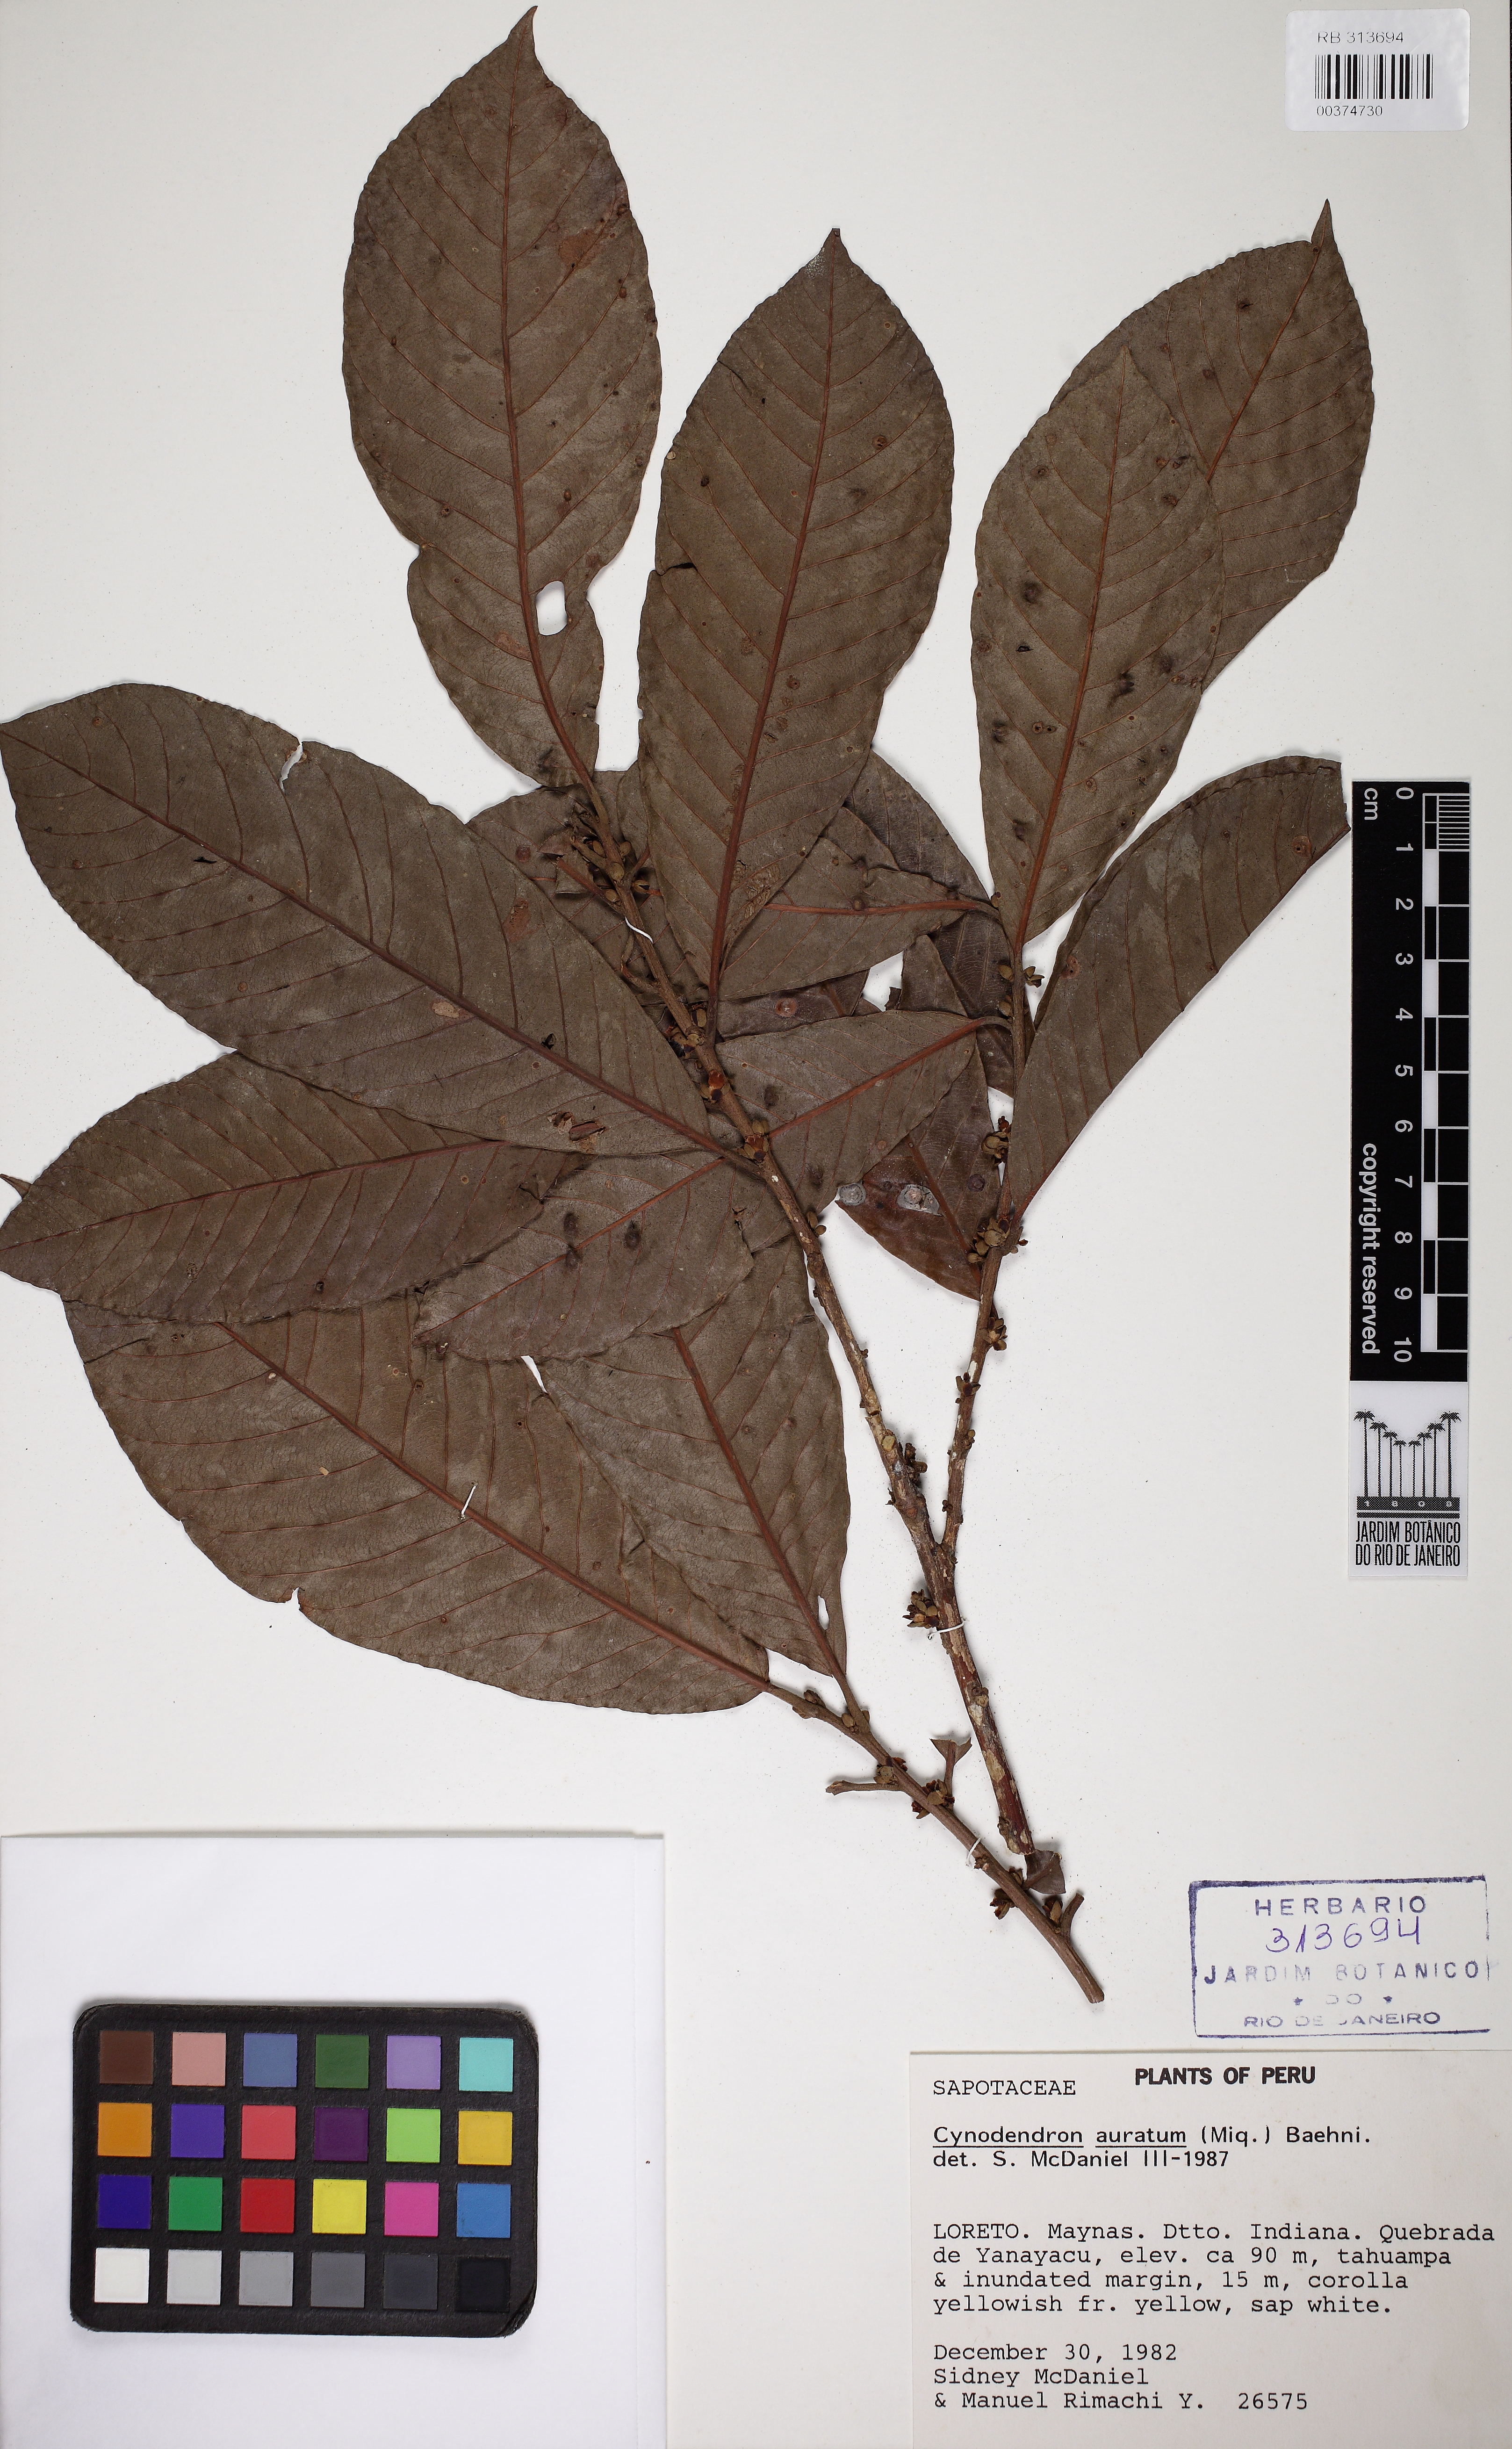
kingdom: Plantae
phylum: Tracheophyta
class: Magnoliopsida
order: Ericales
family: Sapotaceae
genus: Chrysophyllum
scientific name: Chrysophyllum argenteum
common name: Smooth star apple
